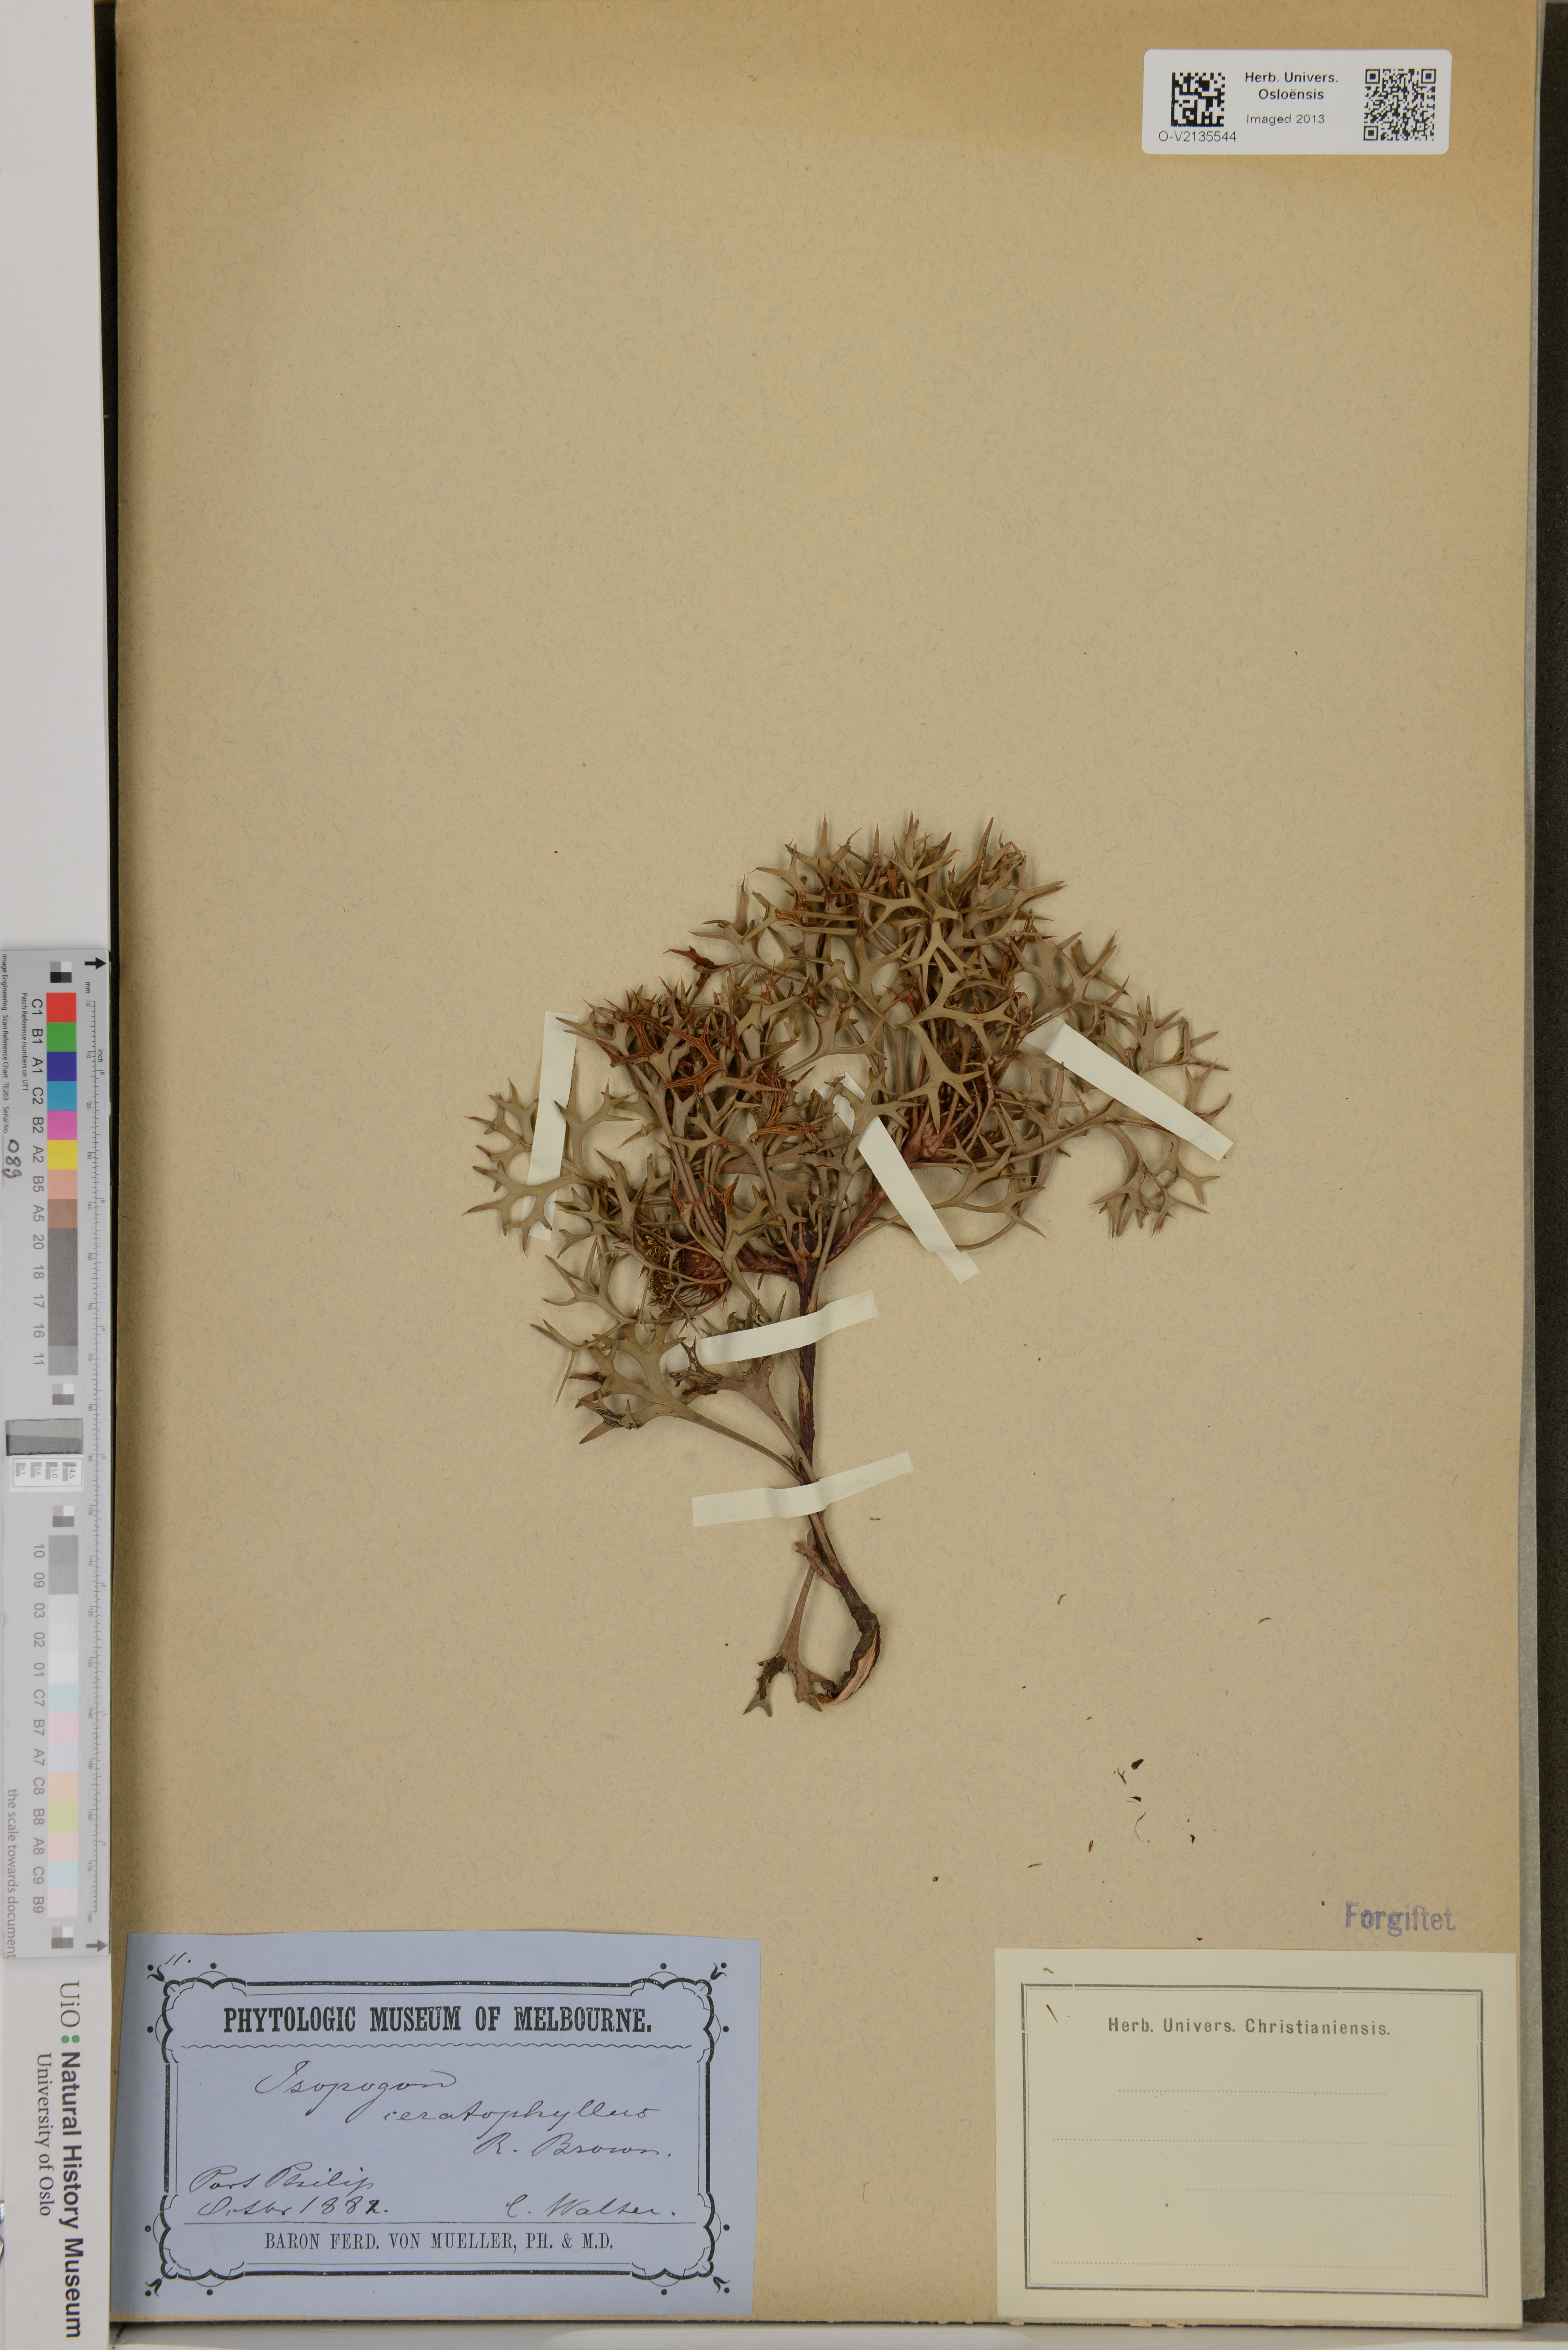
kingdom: Plantae
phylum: Tracheophyta
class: Magnoliopsida
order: Proteales
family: Proteaceae
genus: Isopogon
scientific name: Isopogon ceratophyllus
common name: Horny cone-bush
